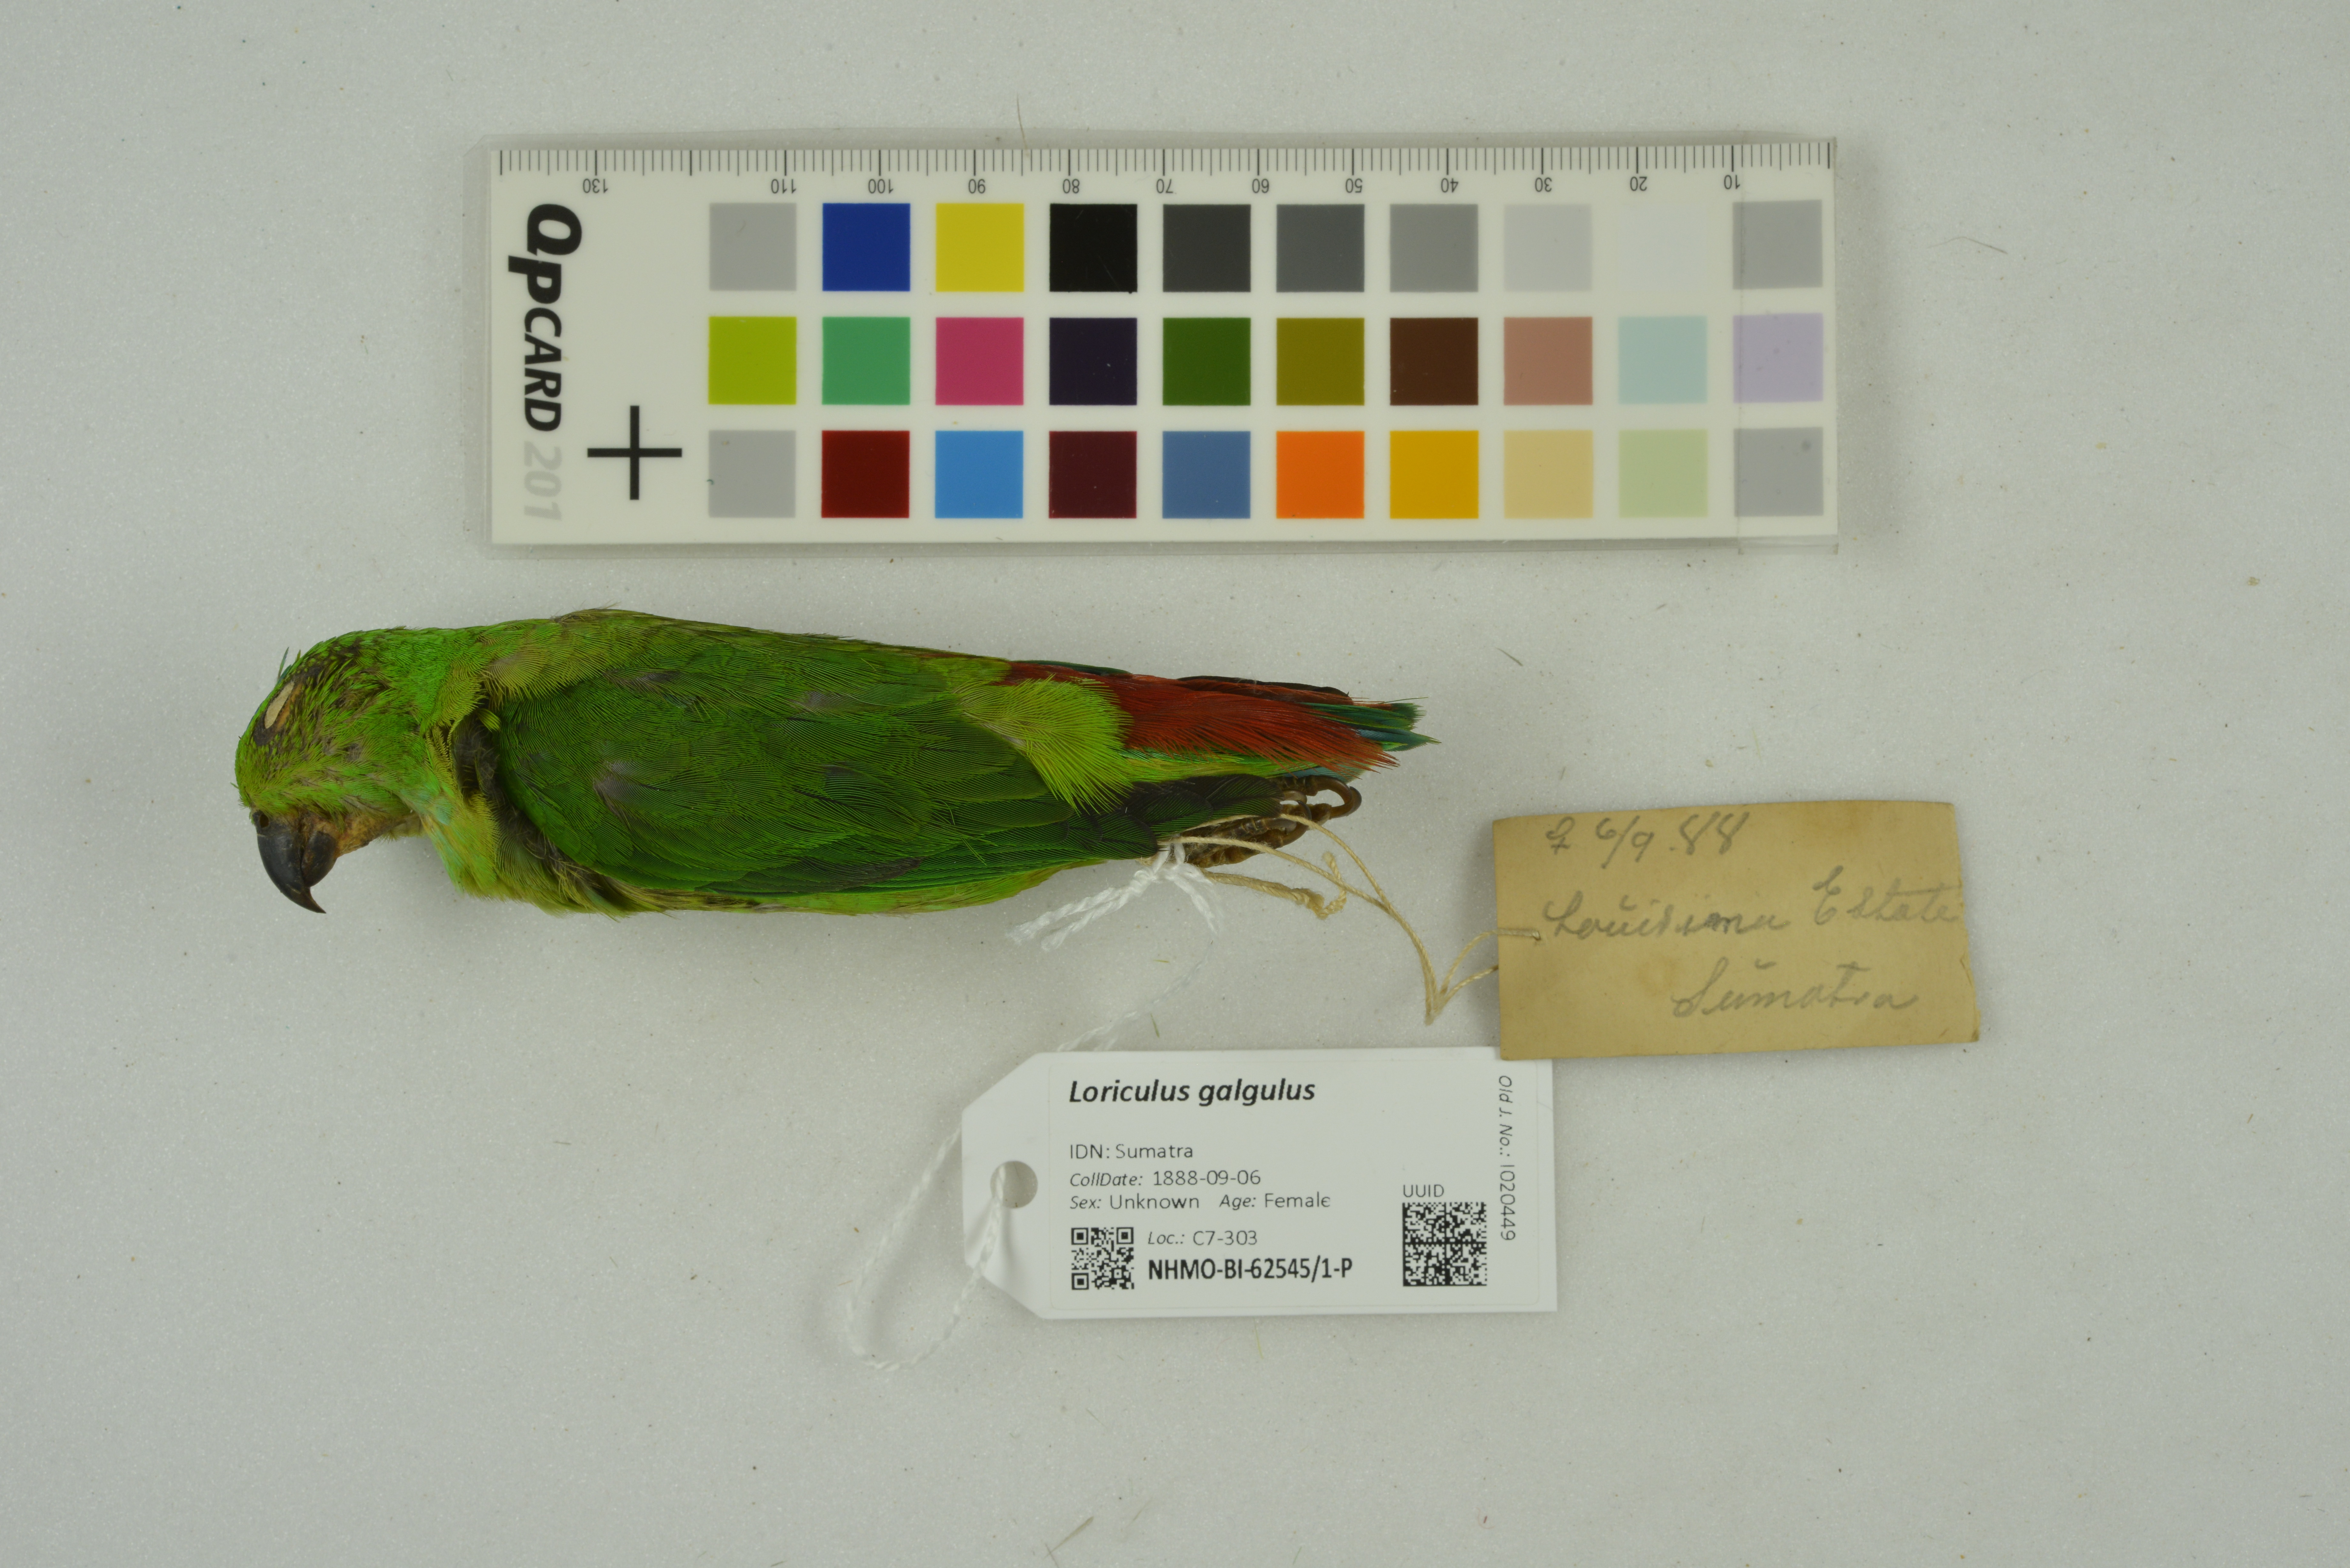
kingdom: Animalia
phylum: Chordata
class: Aves
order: Psittaciformes
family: Psittacidae
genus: Loriculus
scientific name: Loriculus galgulus
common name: Blue-crowned hanging parrot
